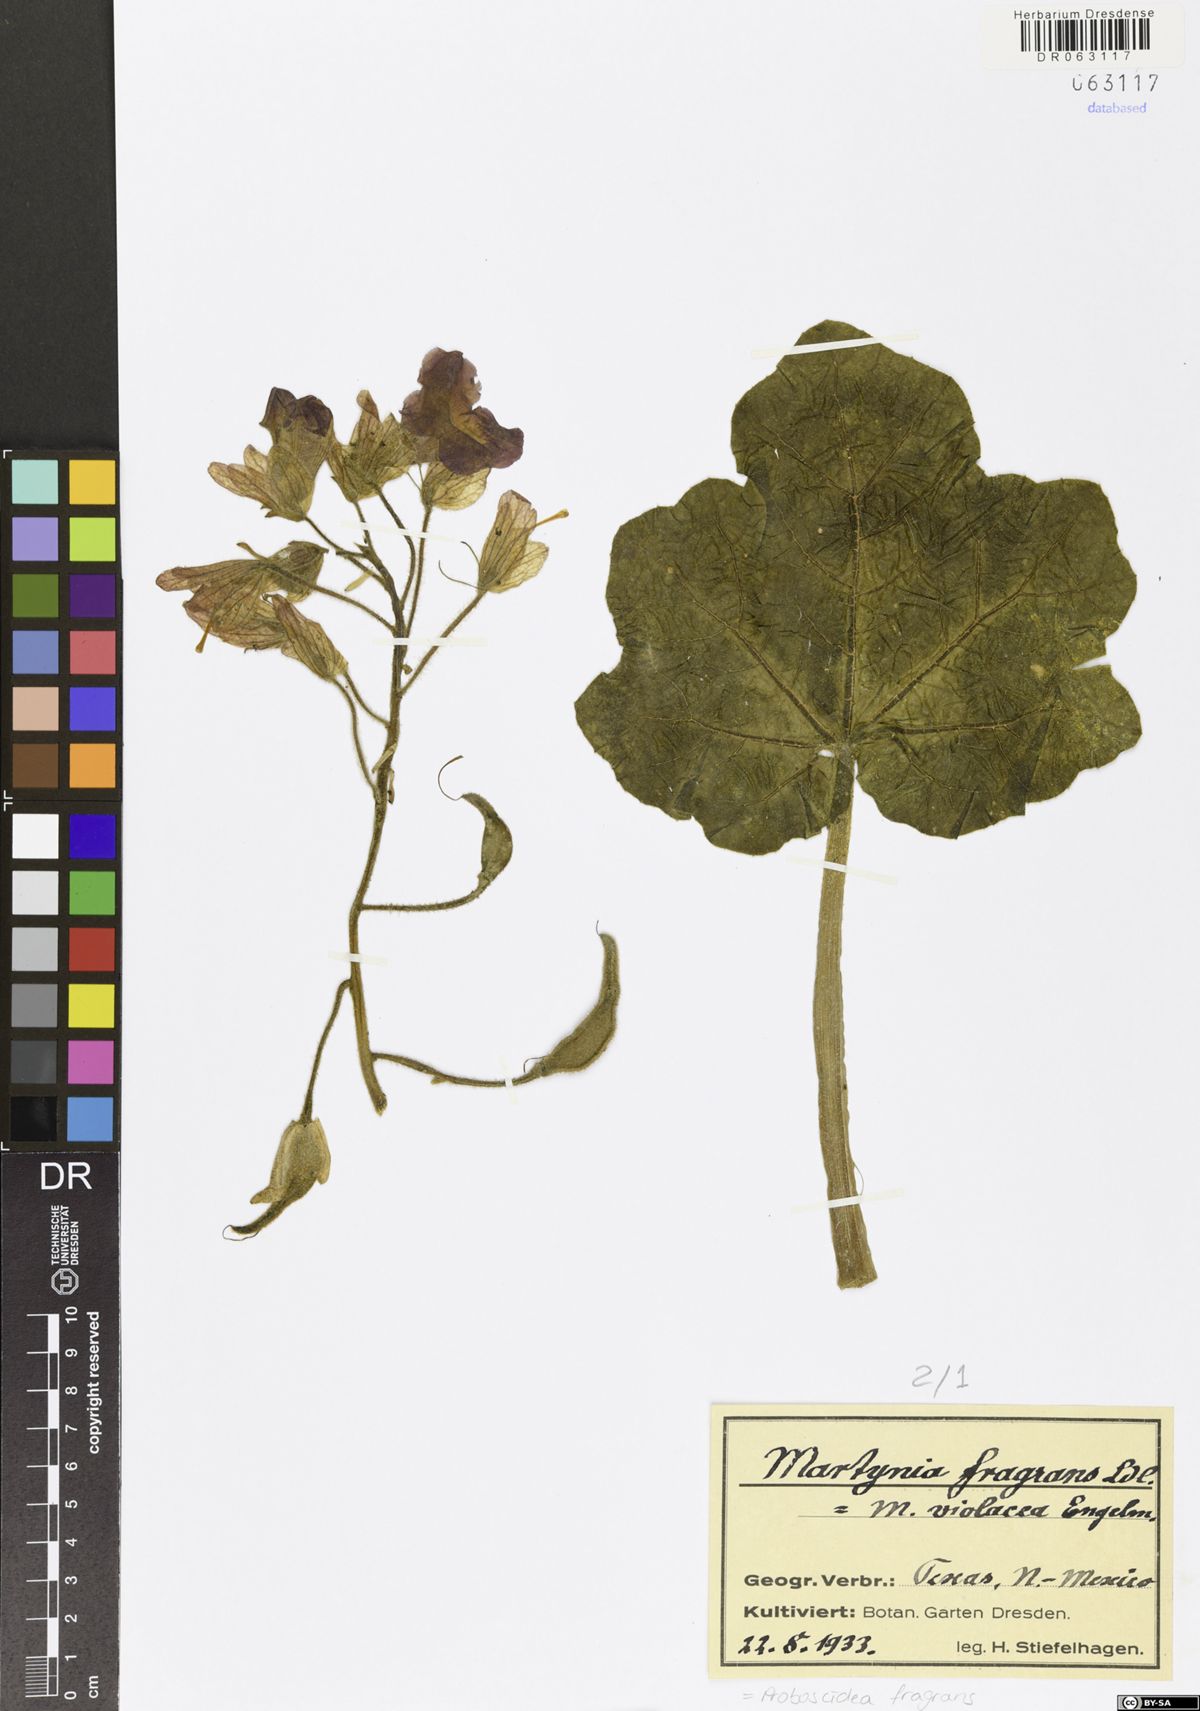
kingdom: Plantae
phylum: Tracheophyta
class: Magnoliopsida
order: Lamiales
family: Martyniaceae
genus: Proboscidea
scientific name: Proboscidea louisianica
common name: Elephant tusks
